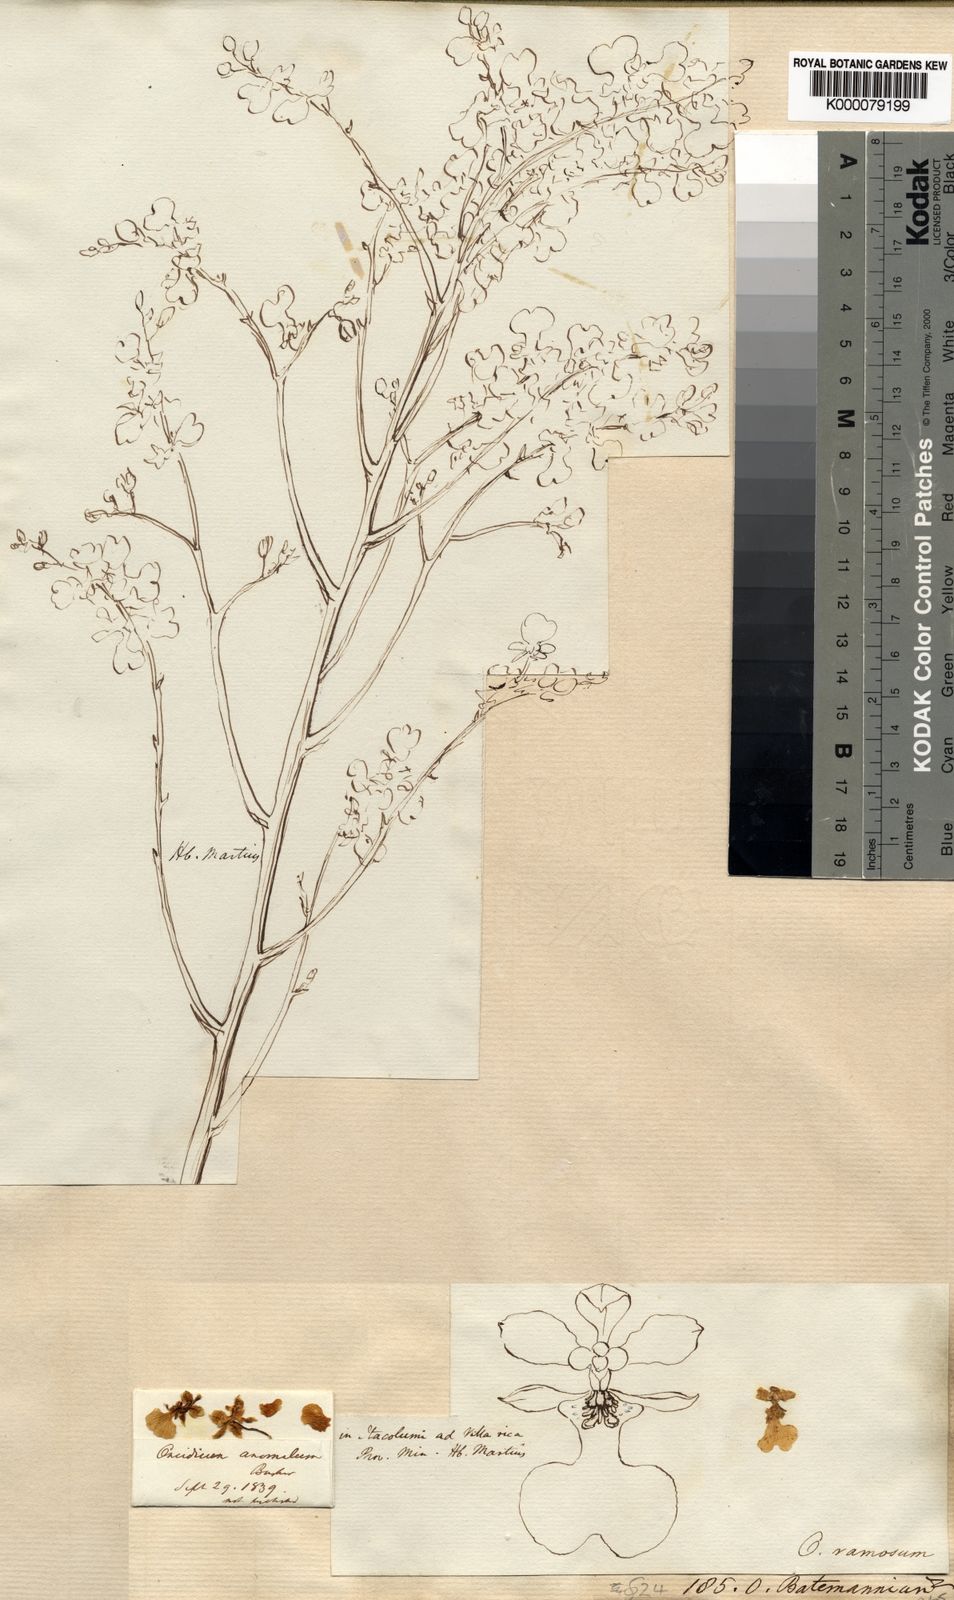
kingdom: Plantae
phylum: Tracheophyta
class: Liliopsida
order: Asparagales
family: Orchidaceae
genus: Gomesa
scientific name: Gomesa ramosa
